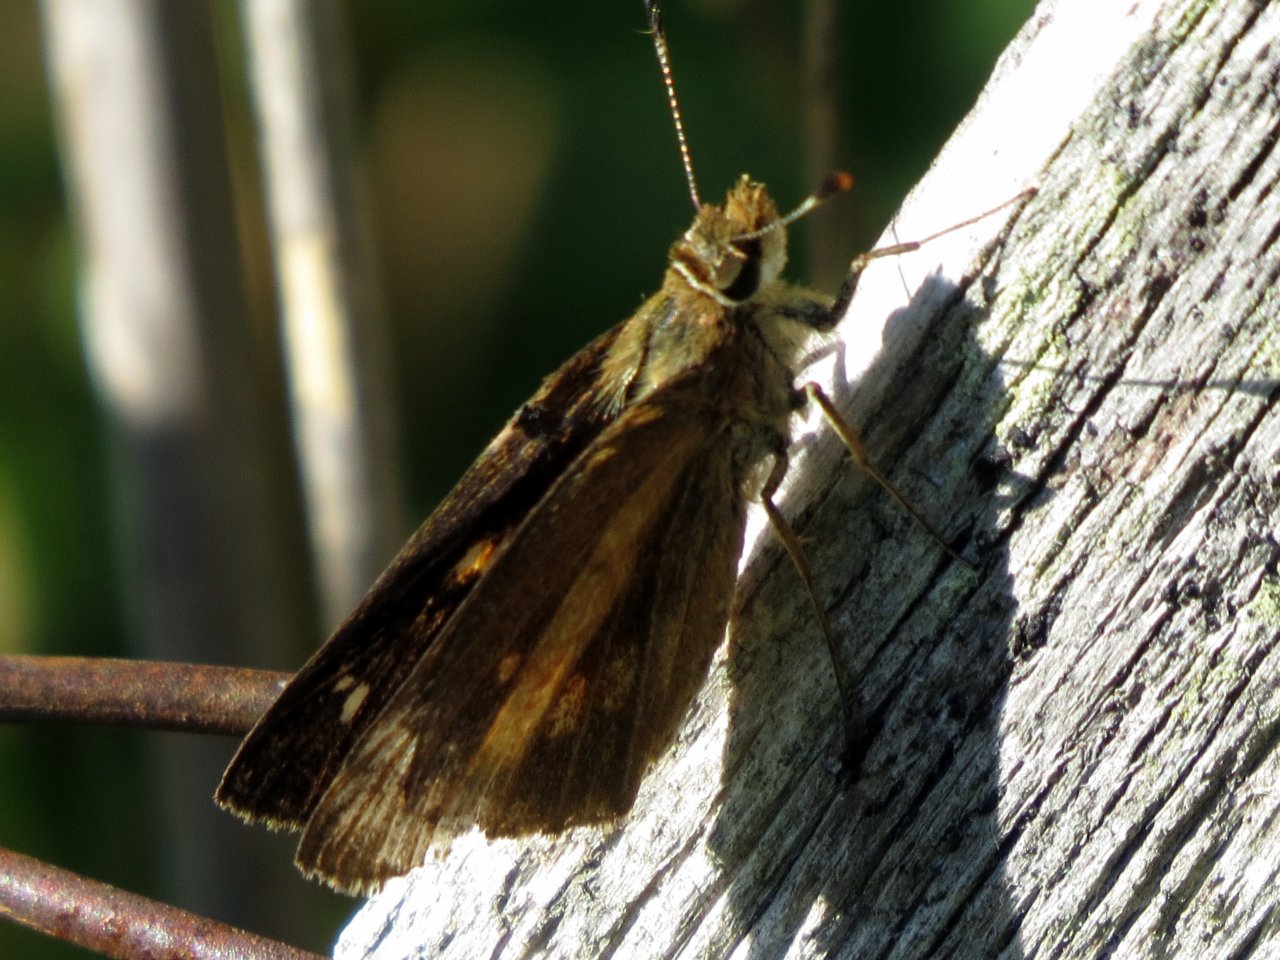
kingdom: Animalia
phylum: Arthropoda
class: Insecta
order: Lepidoptera
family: Hesperiidae
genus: Poanes
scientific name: Poanes viator
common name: Broad-winged Skipper
